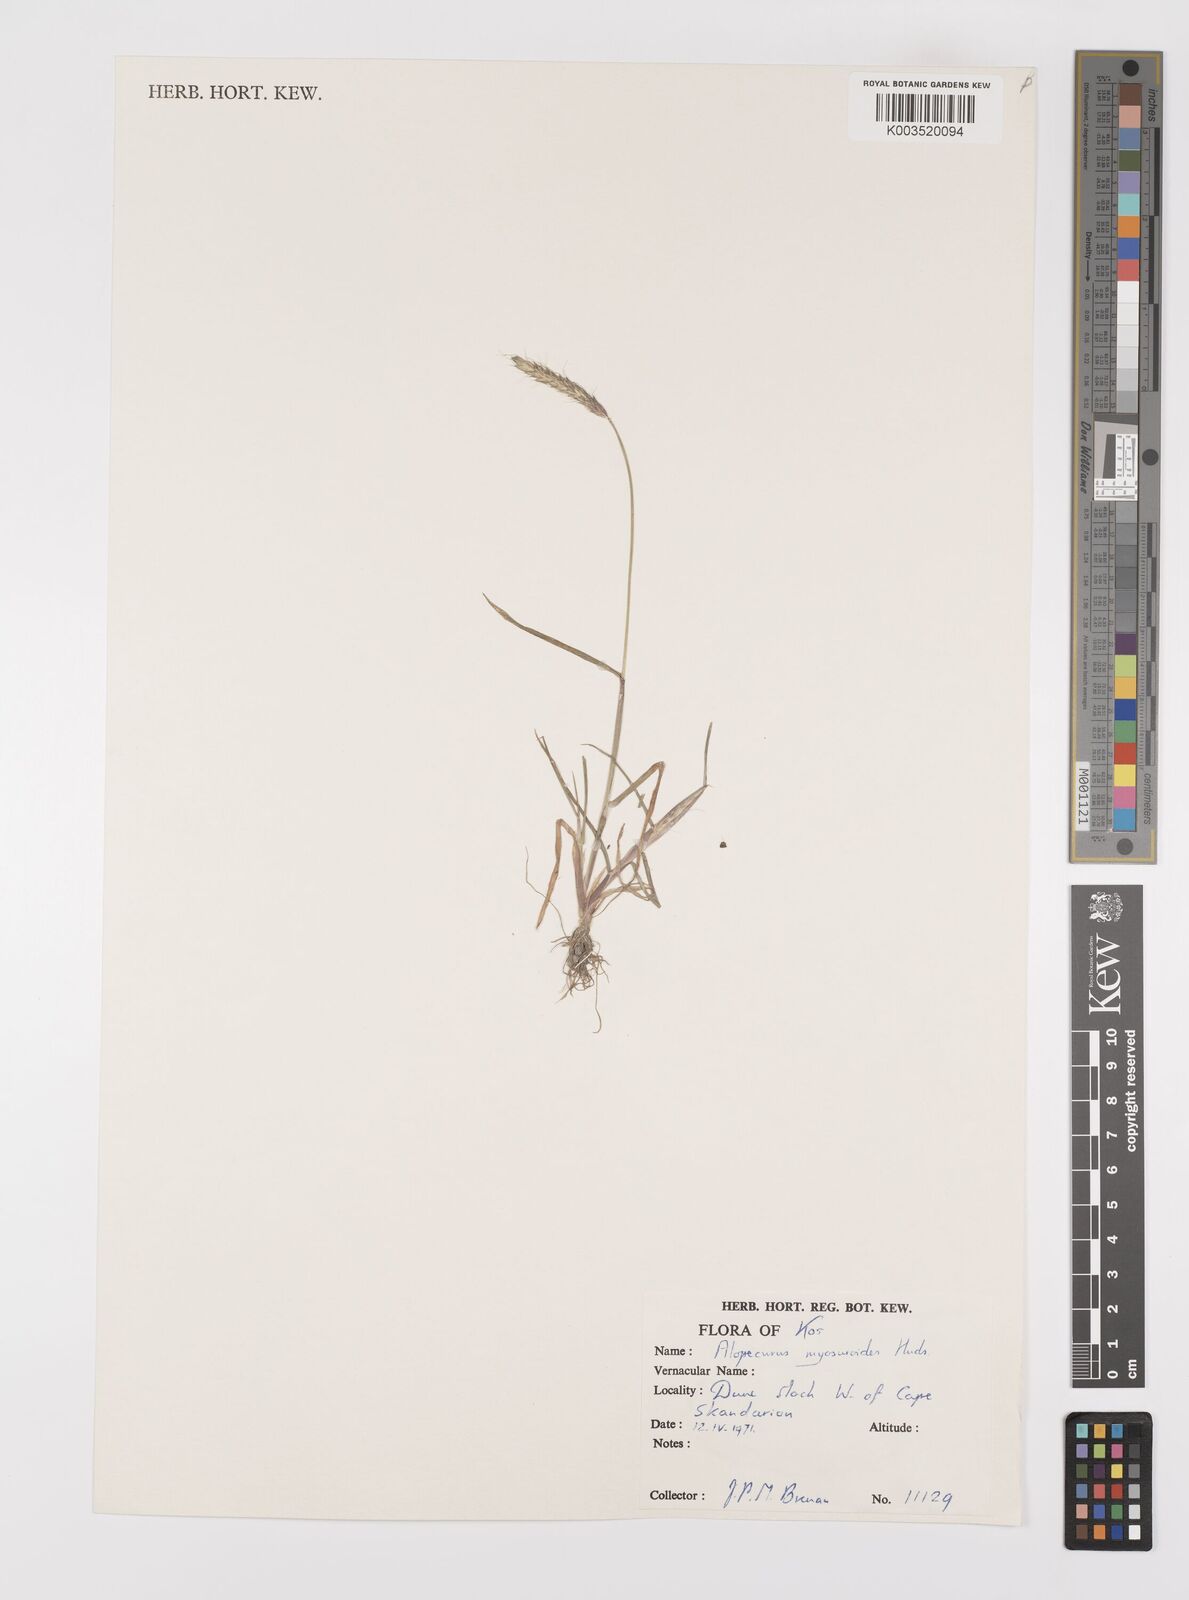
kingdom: Plantae
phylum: Tracheophyta
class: Liliopsida
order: Poales
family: Poaceae
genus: Alopecurus
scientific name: Alopecurus myosuroides
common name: Black-grass
